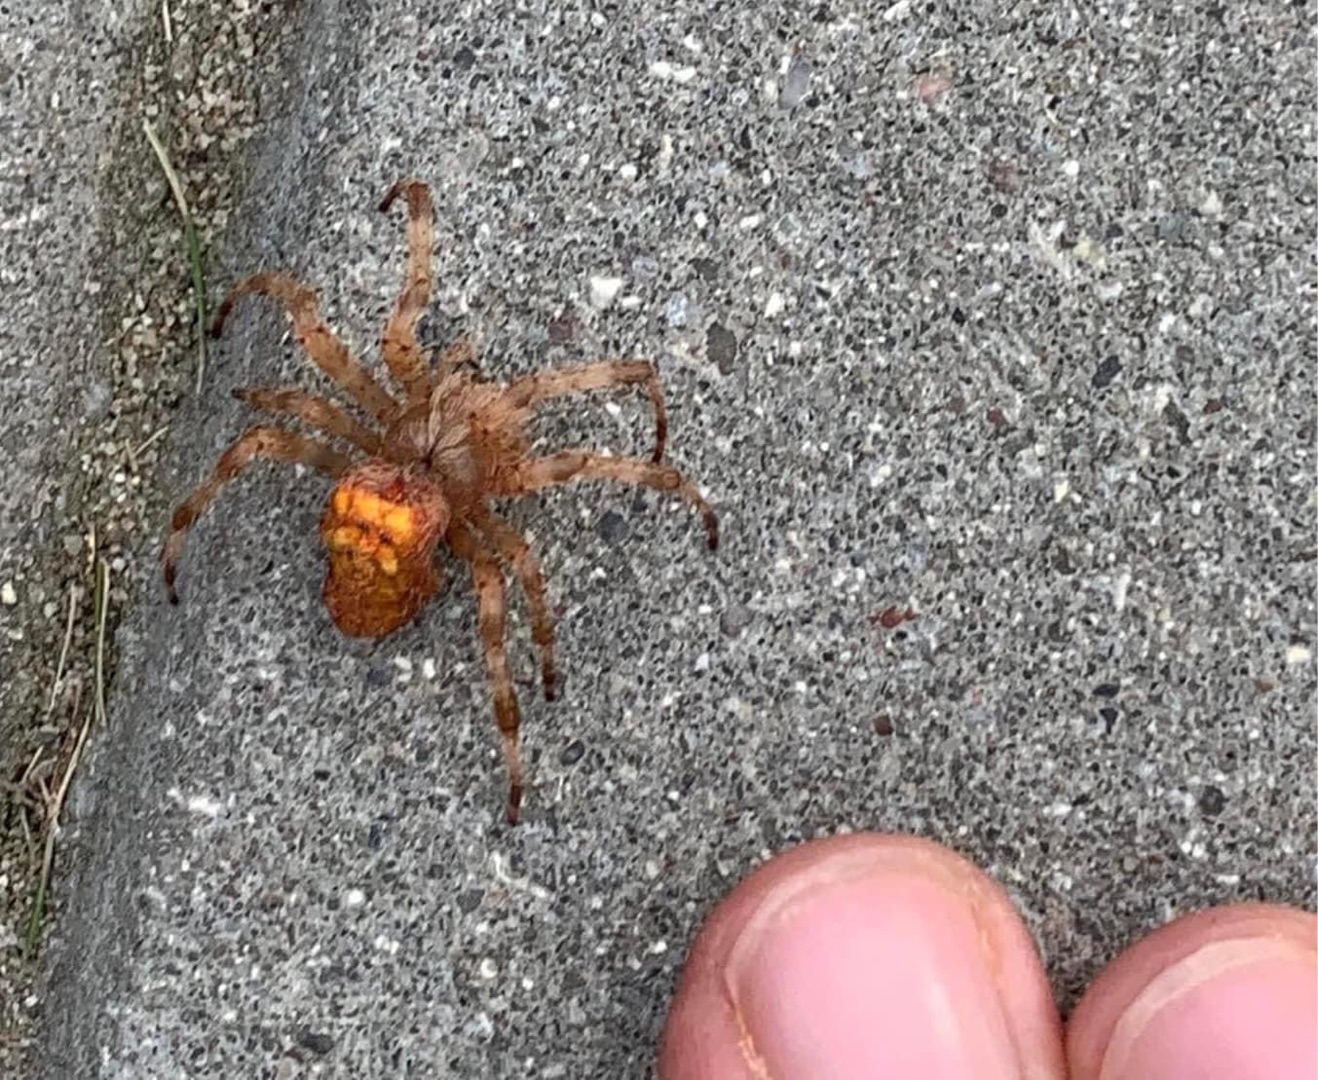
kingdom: Animalia
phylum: Arthropoda
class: Arachnida
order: Araneae
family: Araneidae
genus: Araneus
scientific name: Araneus diadematus
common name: Korsedderkop
